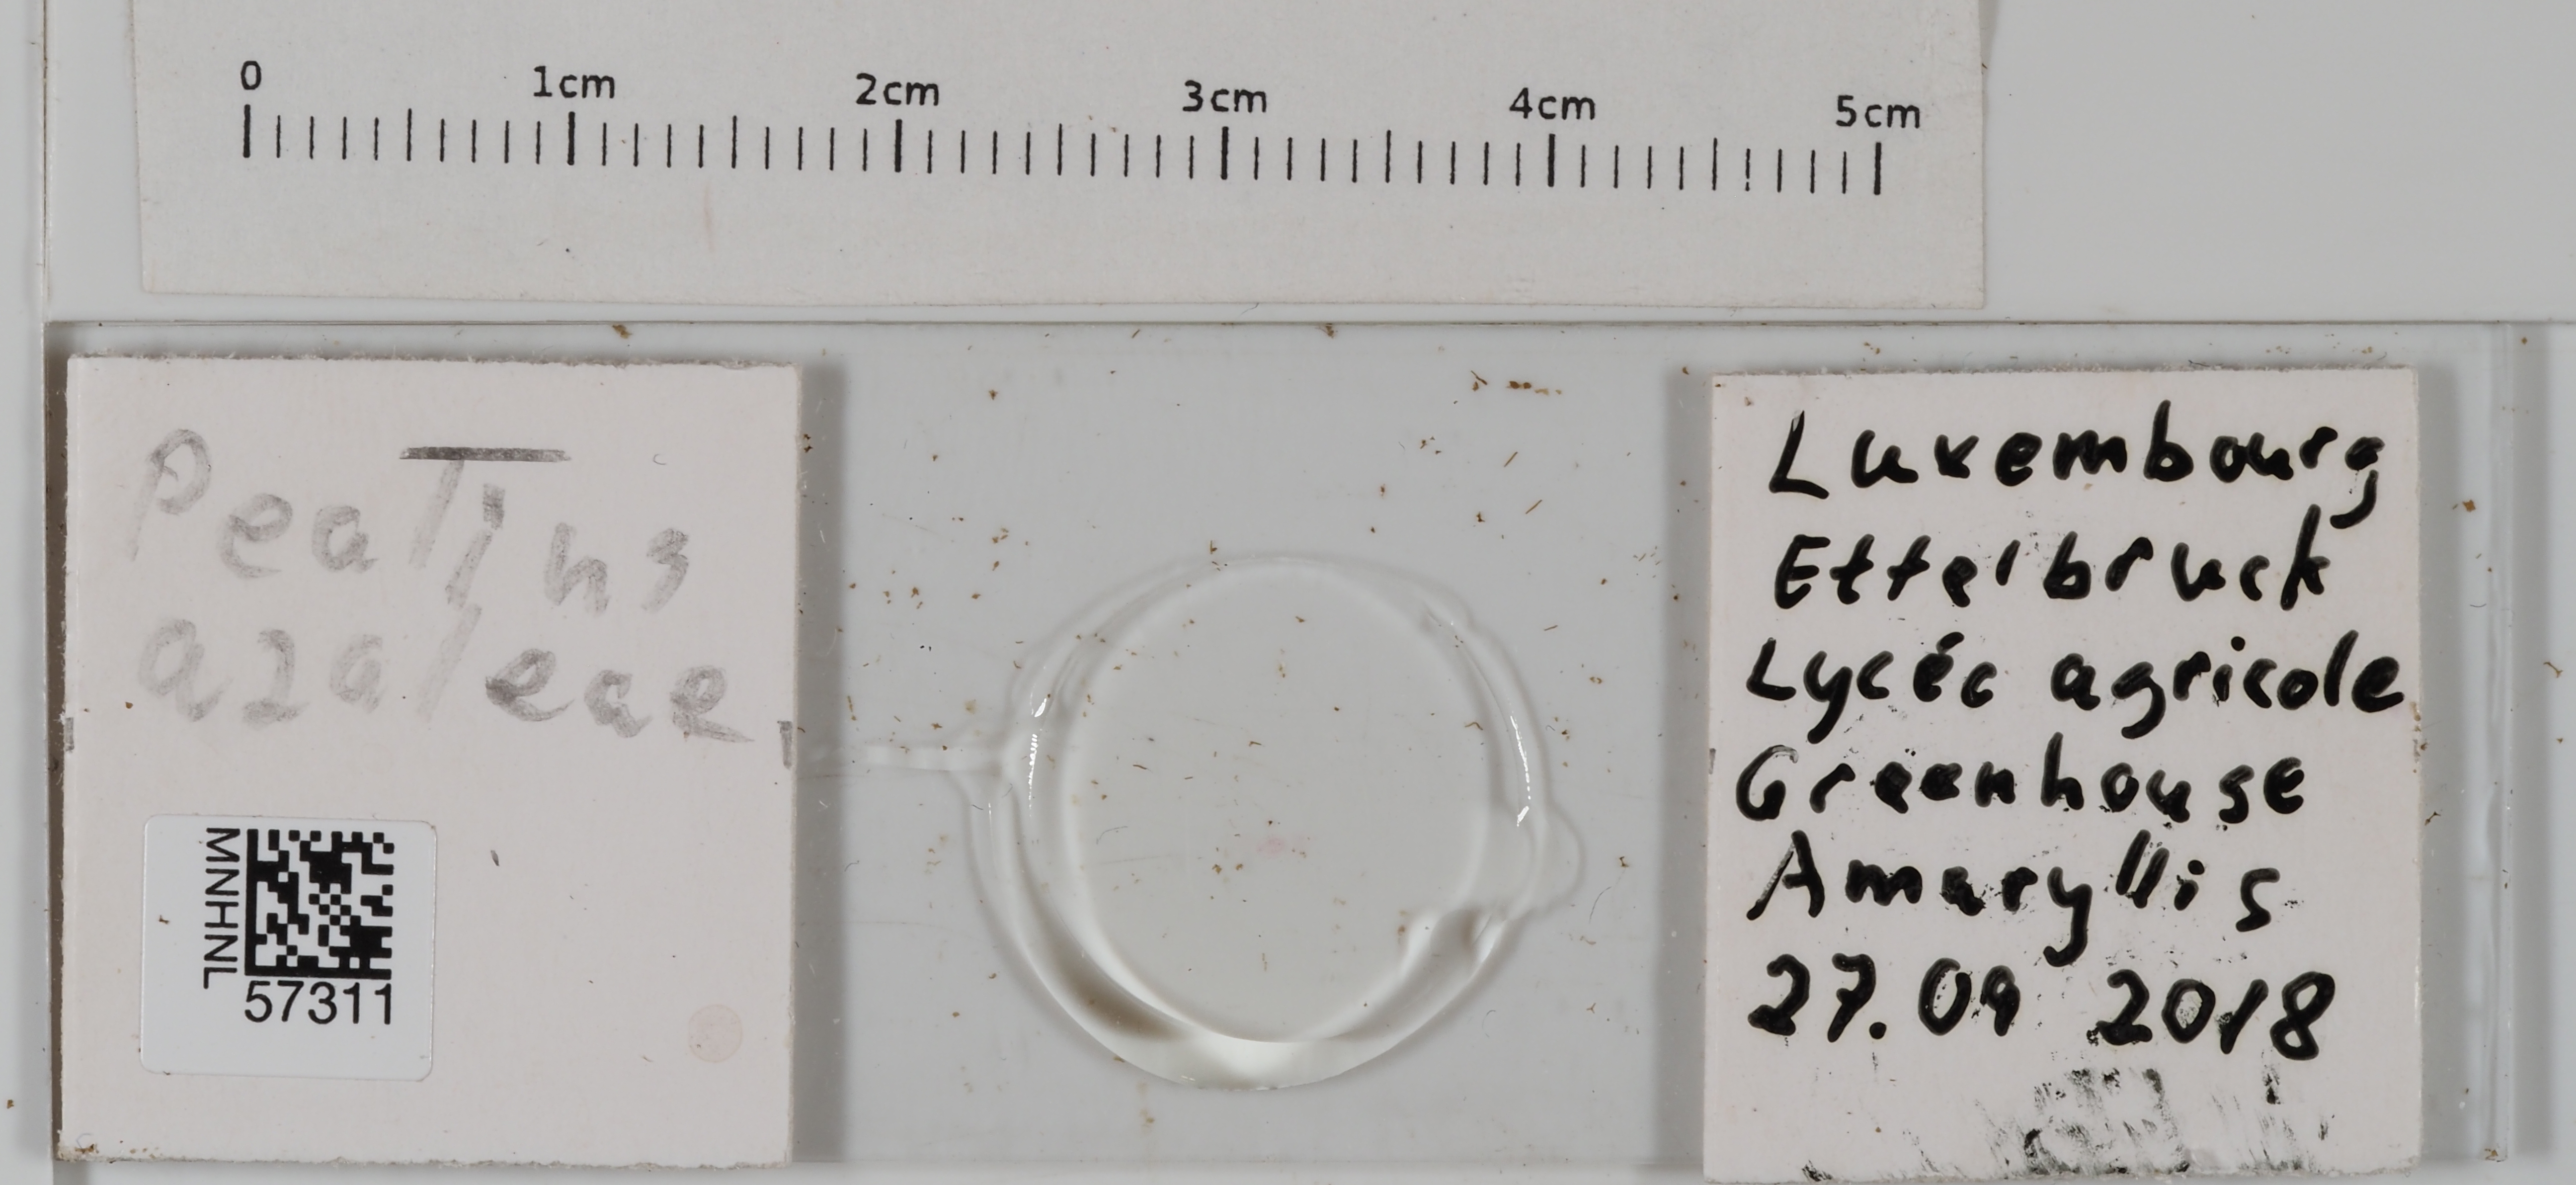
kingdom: Animalia
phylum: Arthropoda
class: Insecta
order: Hemiptera
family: Aleyrodidae
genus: Pealius
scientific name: Pealius azaleae
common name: Whitefly
